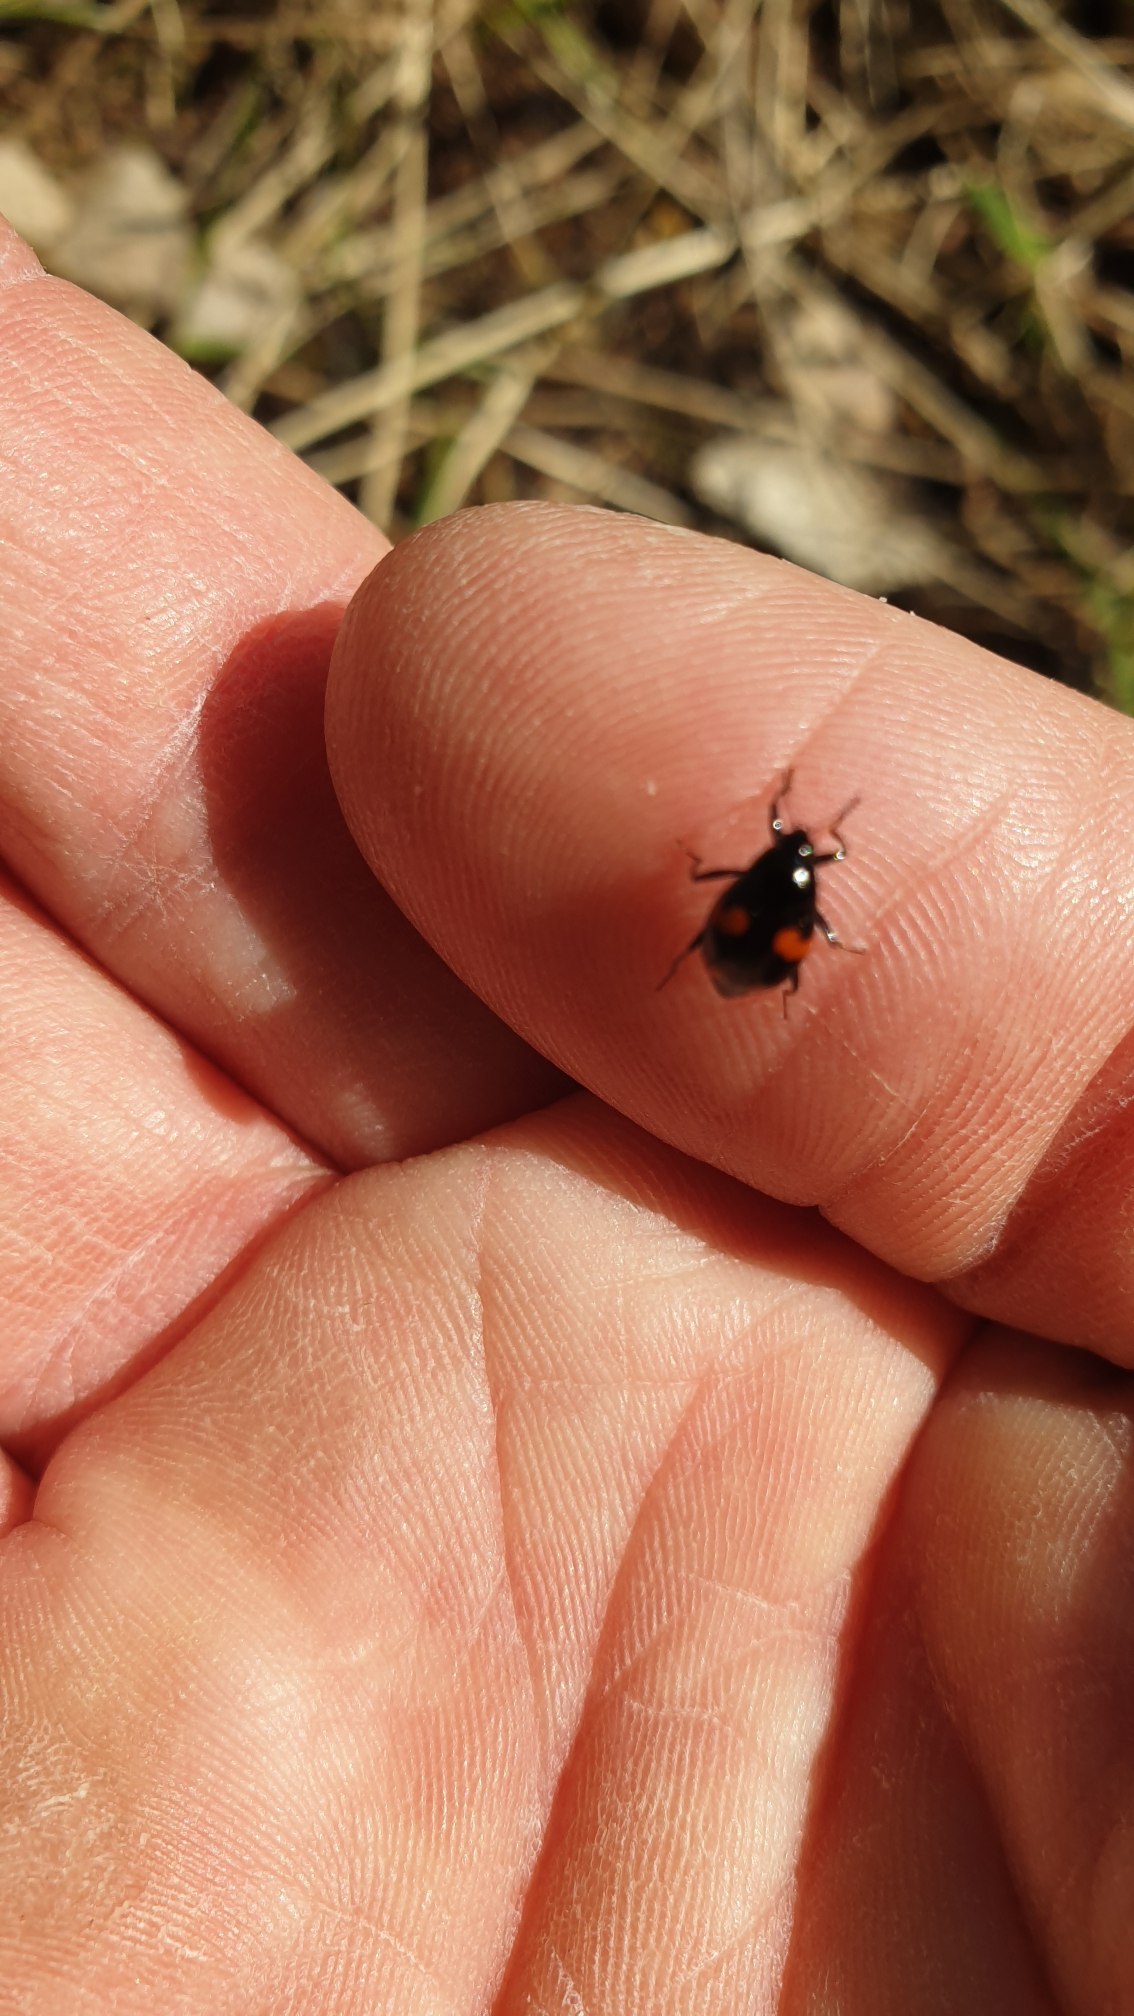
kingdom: Animalia
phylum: Arthropoda
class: Insecta
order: Coleoptera
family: Staphylinidae
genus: Scaphidium
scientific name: Scaphidium quadrimaculatum
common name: Dråberovbille
